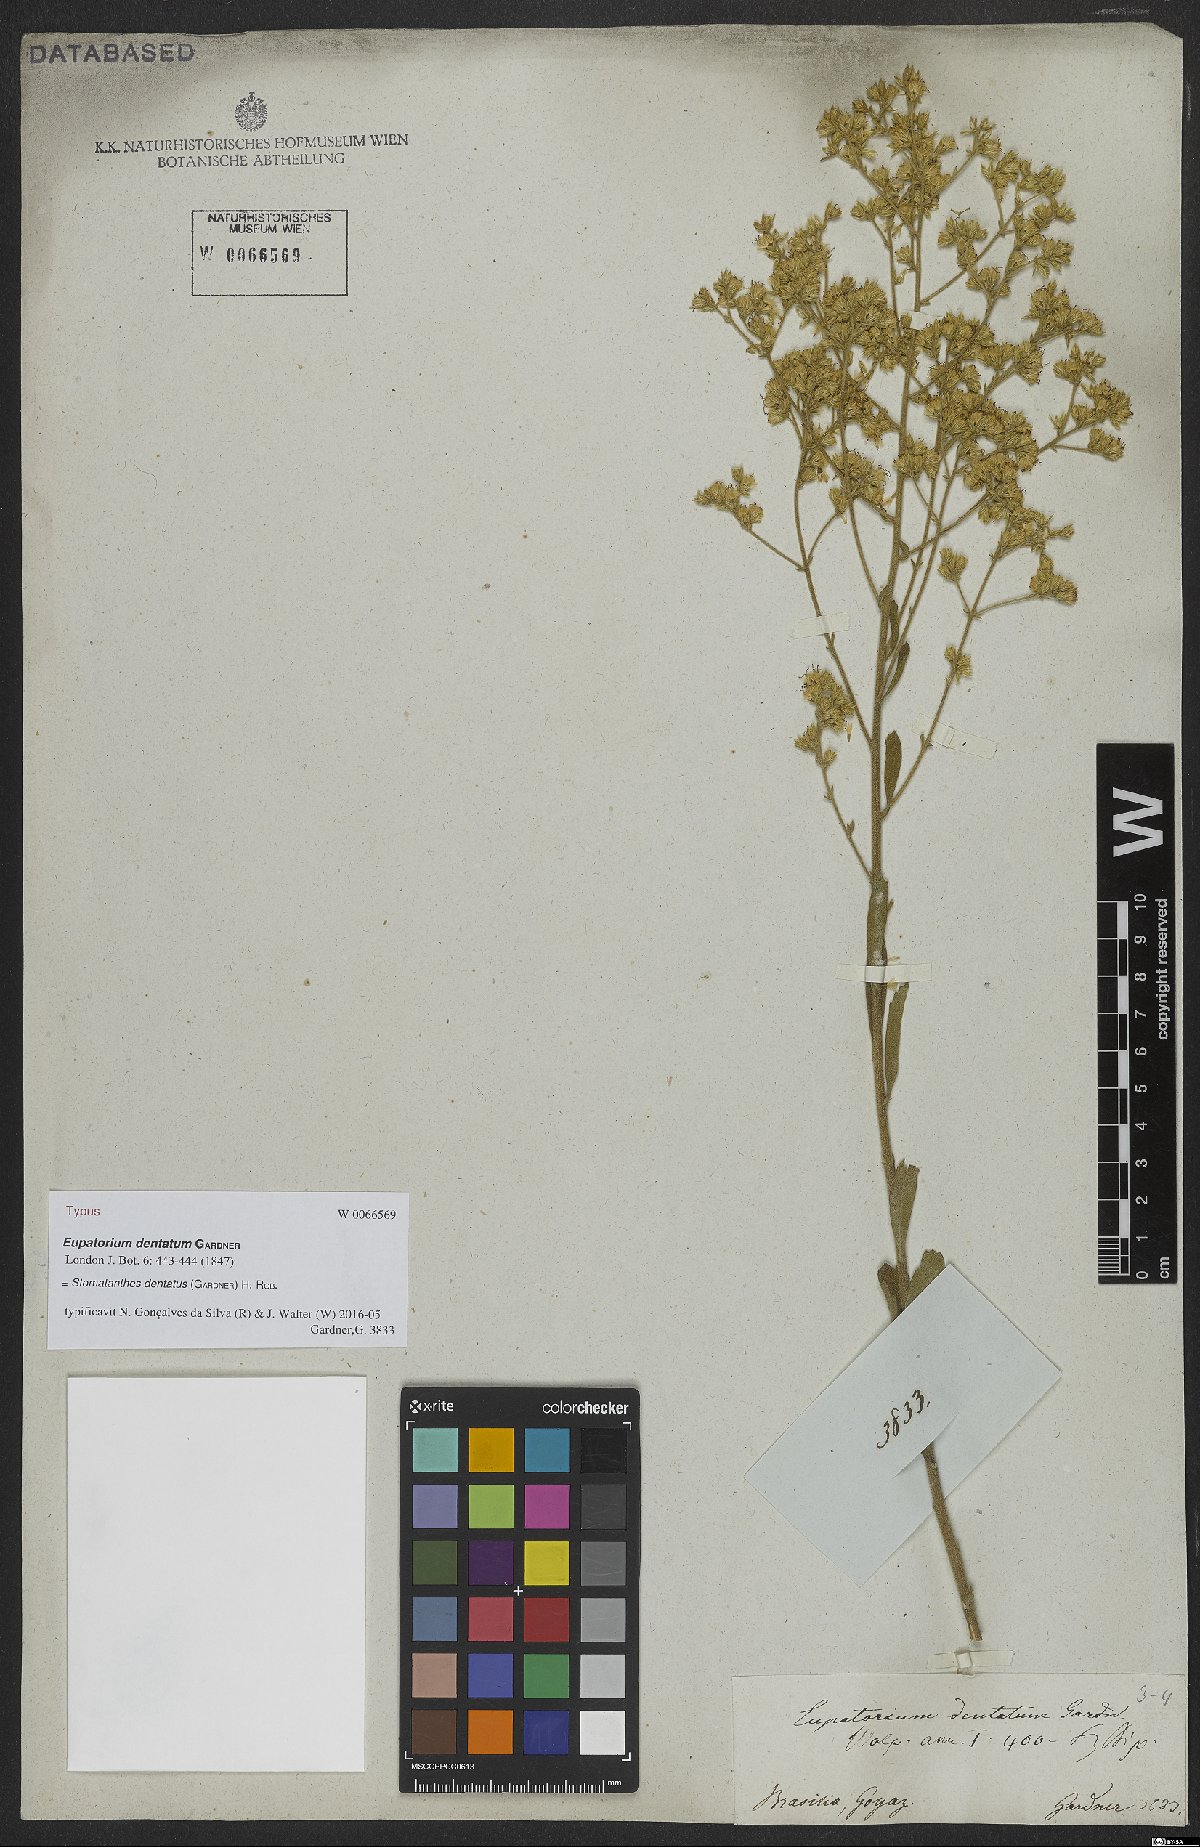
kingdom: Plantae
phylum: Tracheophyta
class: Magnoliopsida
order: Asterales
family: Asteraceae
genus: Stomatanthes
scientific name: Stomatanthes dentatus
